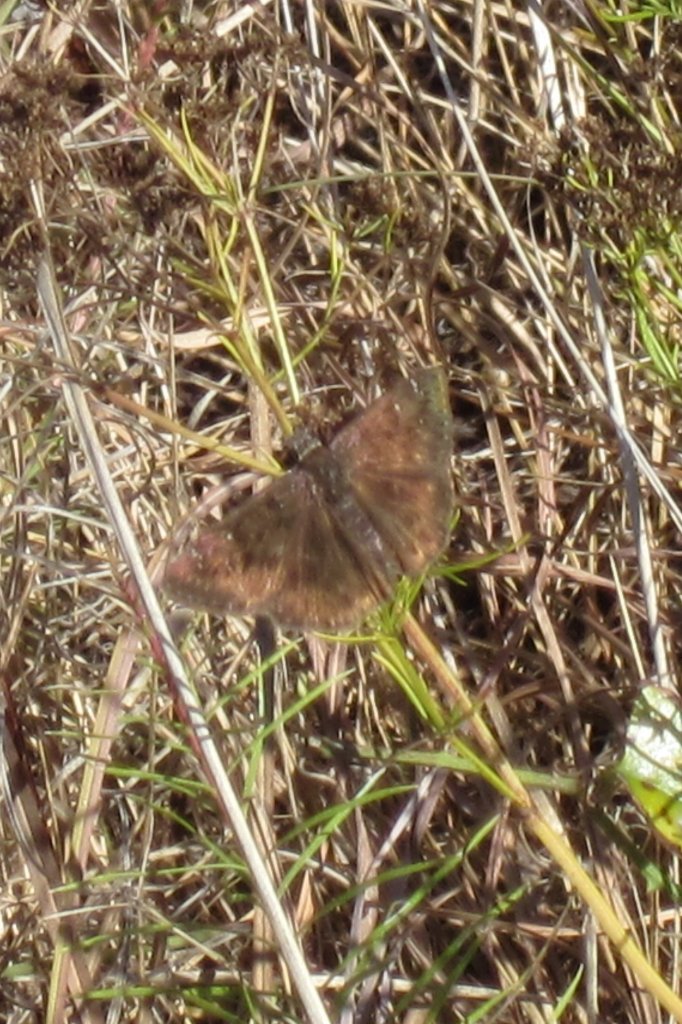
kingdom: Animalia
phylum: Arthropoda
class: Insecta
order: Lepidoptera
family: Hesperiidae
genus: Gesta
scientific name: Gesta
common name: Horace's Duskywing
